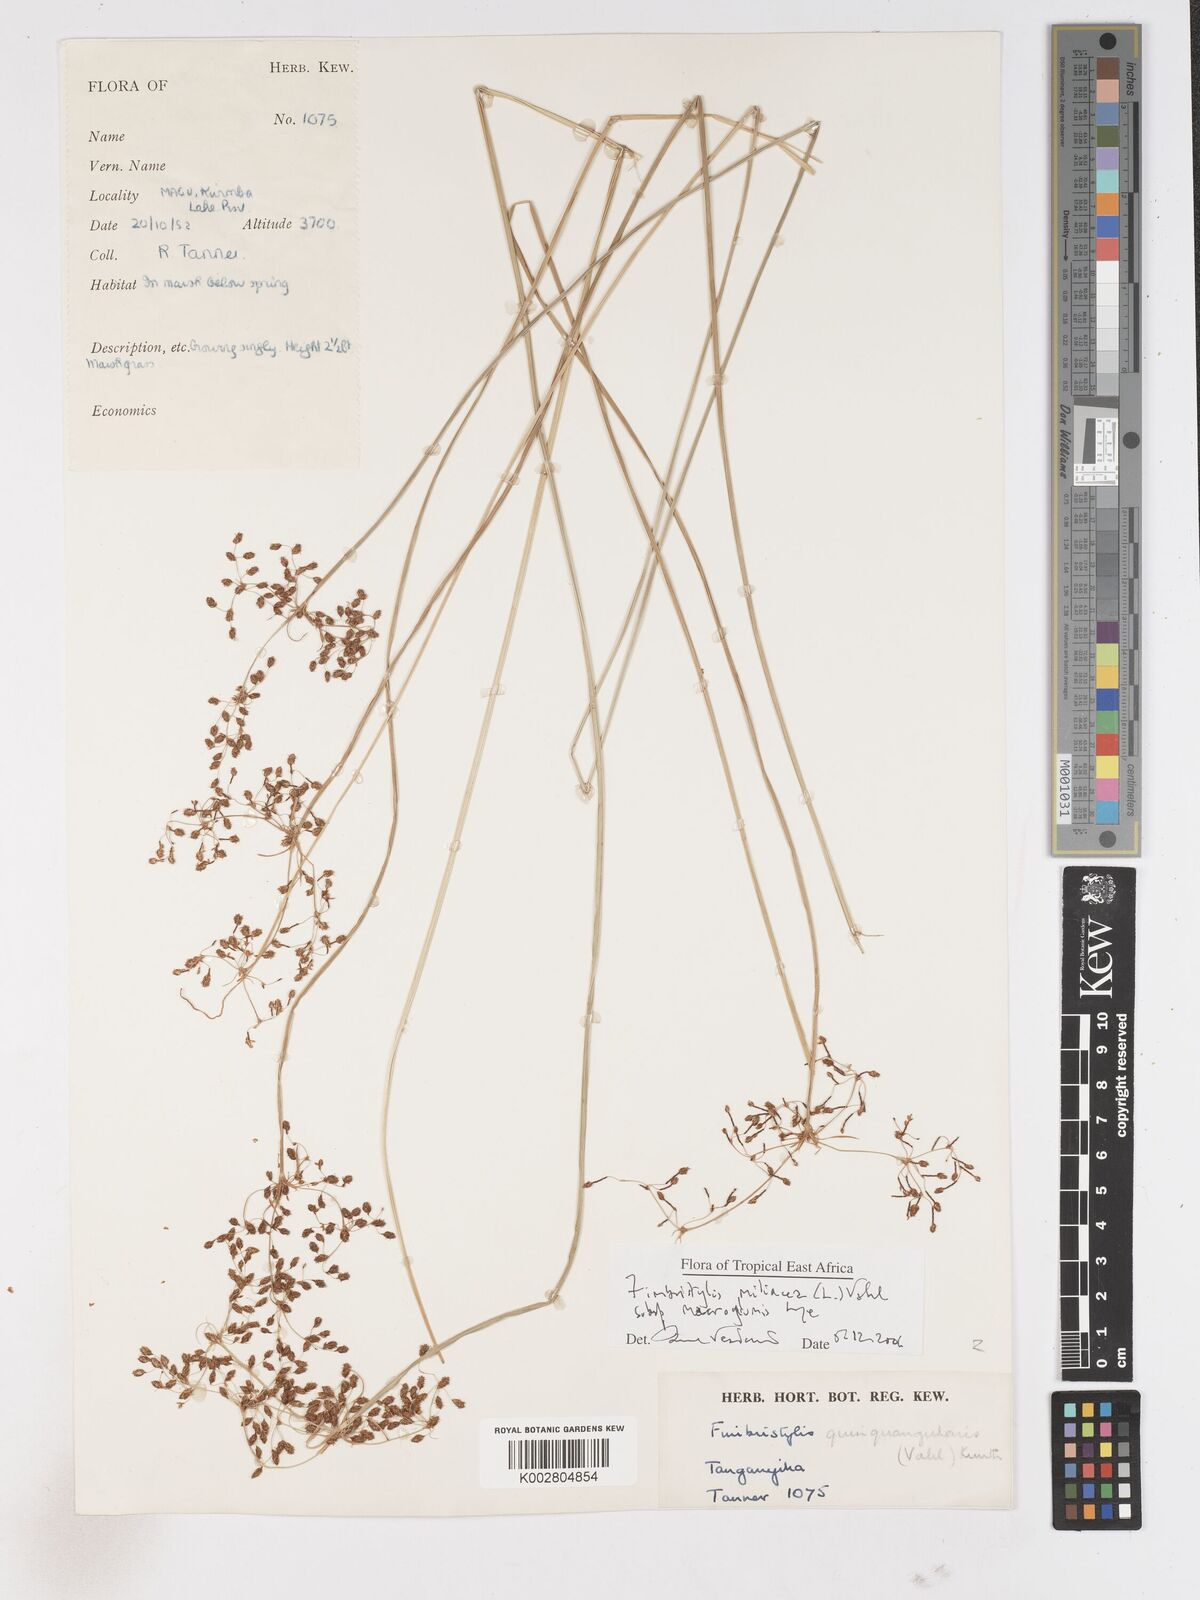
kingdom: Plantae
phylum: Tracheophyta
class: Liliopsida
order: Poales
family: Cyperaceae
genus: Fimbristylis
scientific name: Fimbristylis quinquangularis
